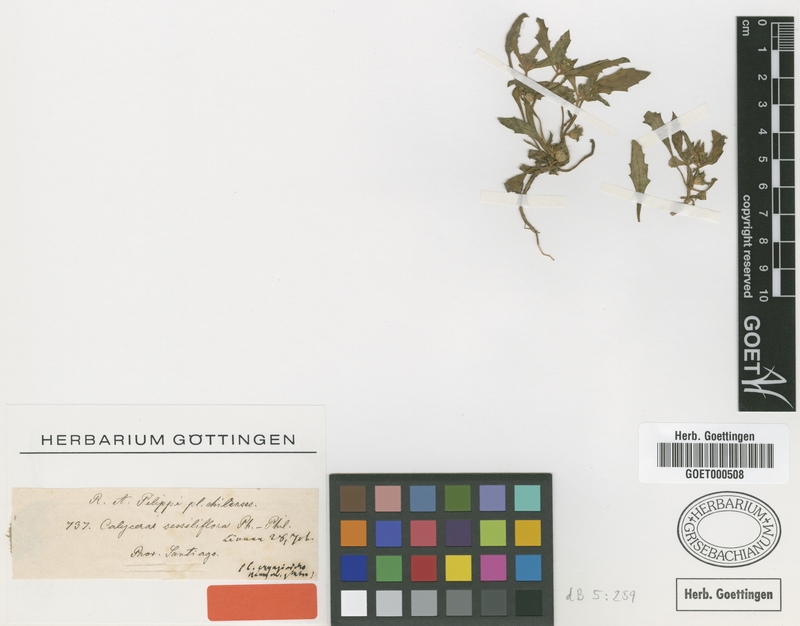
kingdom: Plantae
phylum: Tracheophyta
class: Magnoliopsida
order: Asterales
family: Calyceraceae
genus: Leucocera
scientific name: Leucocera sessiliflora
